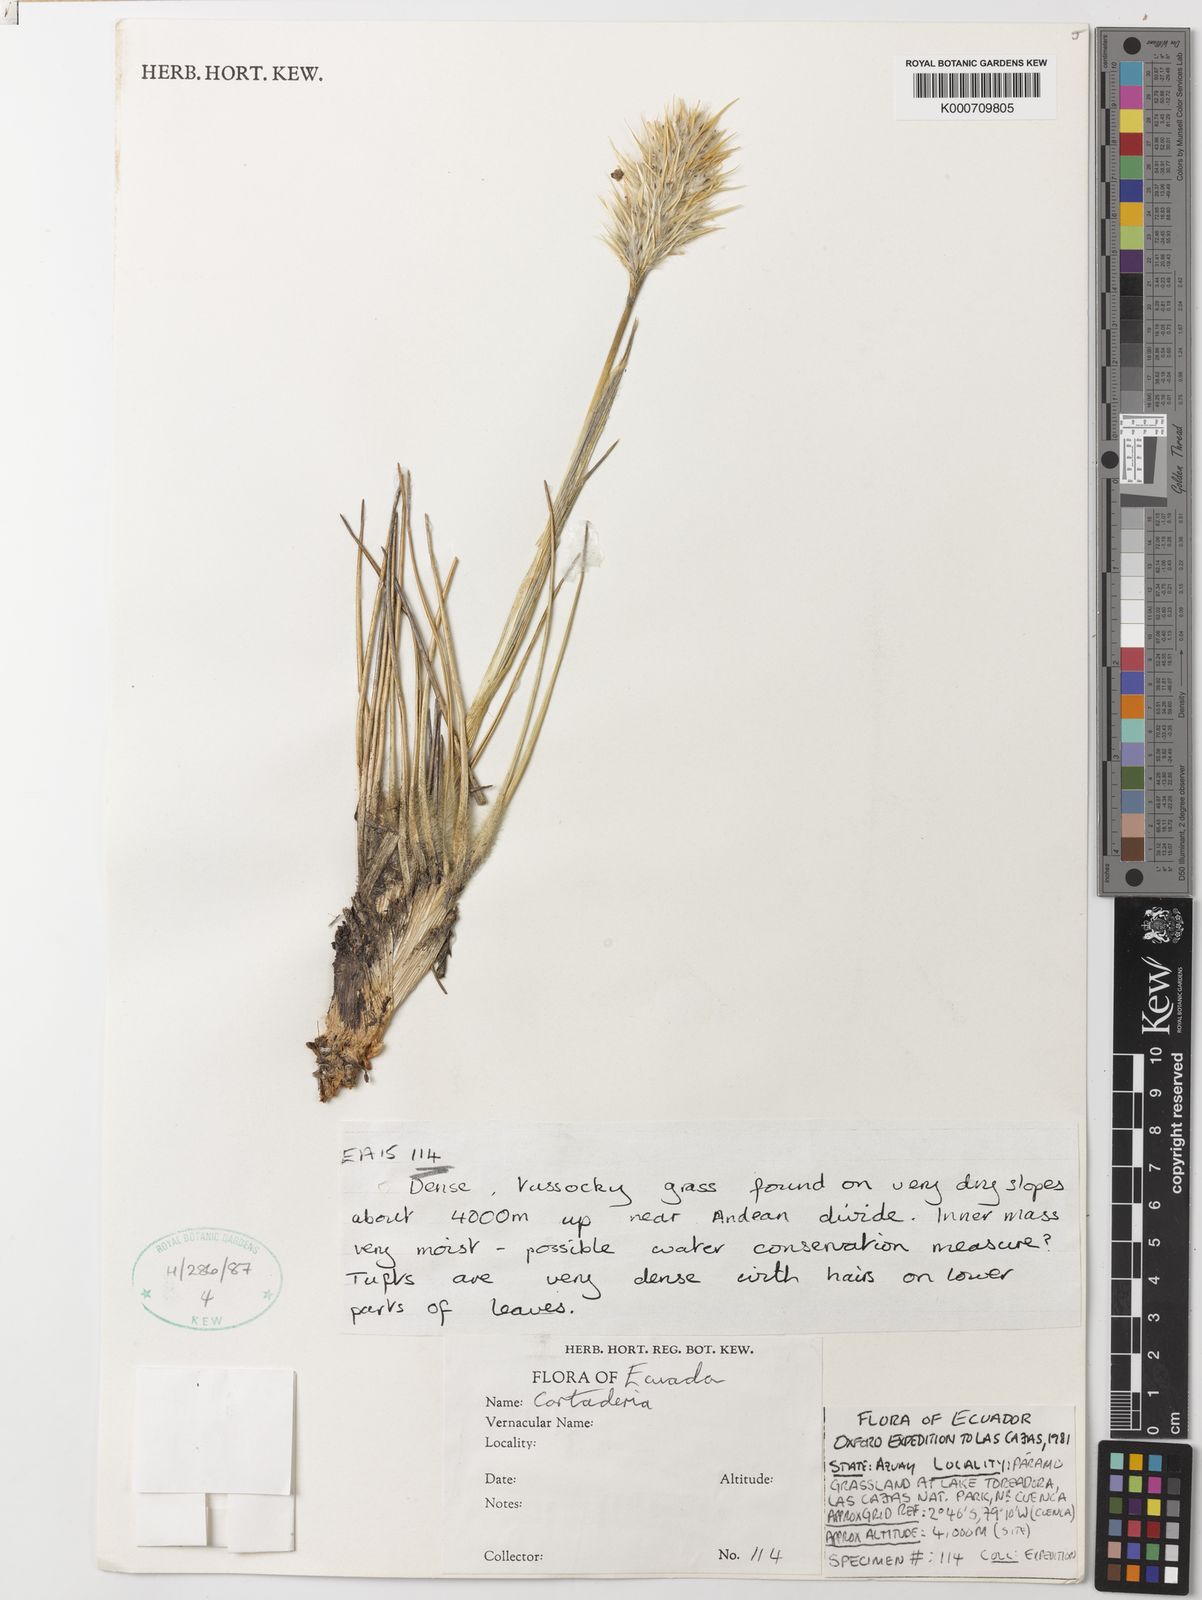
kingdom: Plantae
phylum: Tracheophyta
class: Liliopsida
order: Poales
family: Poaceae
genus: Cortaderia
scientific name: Cortaderia sericantha
